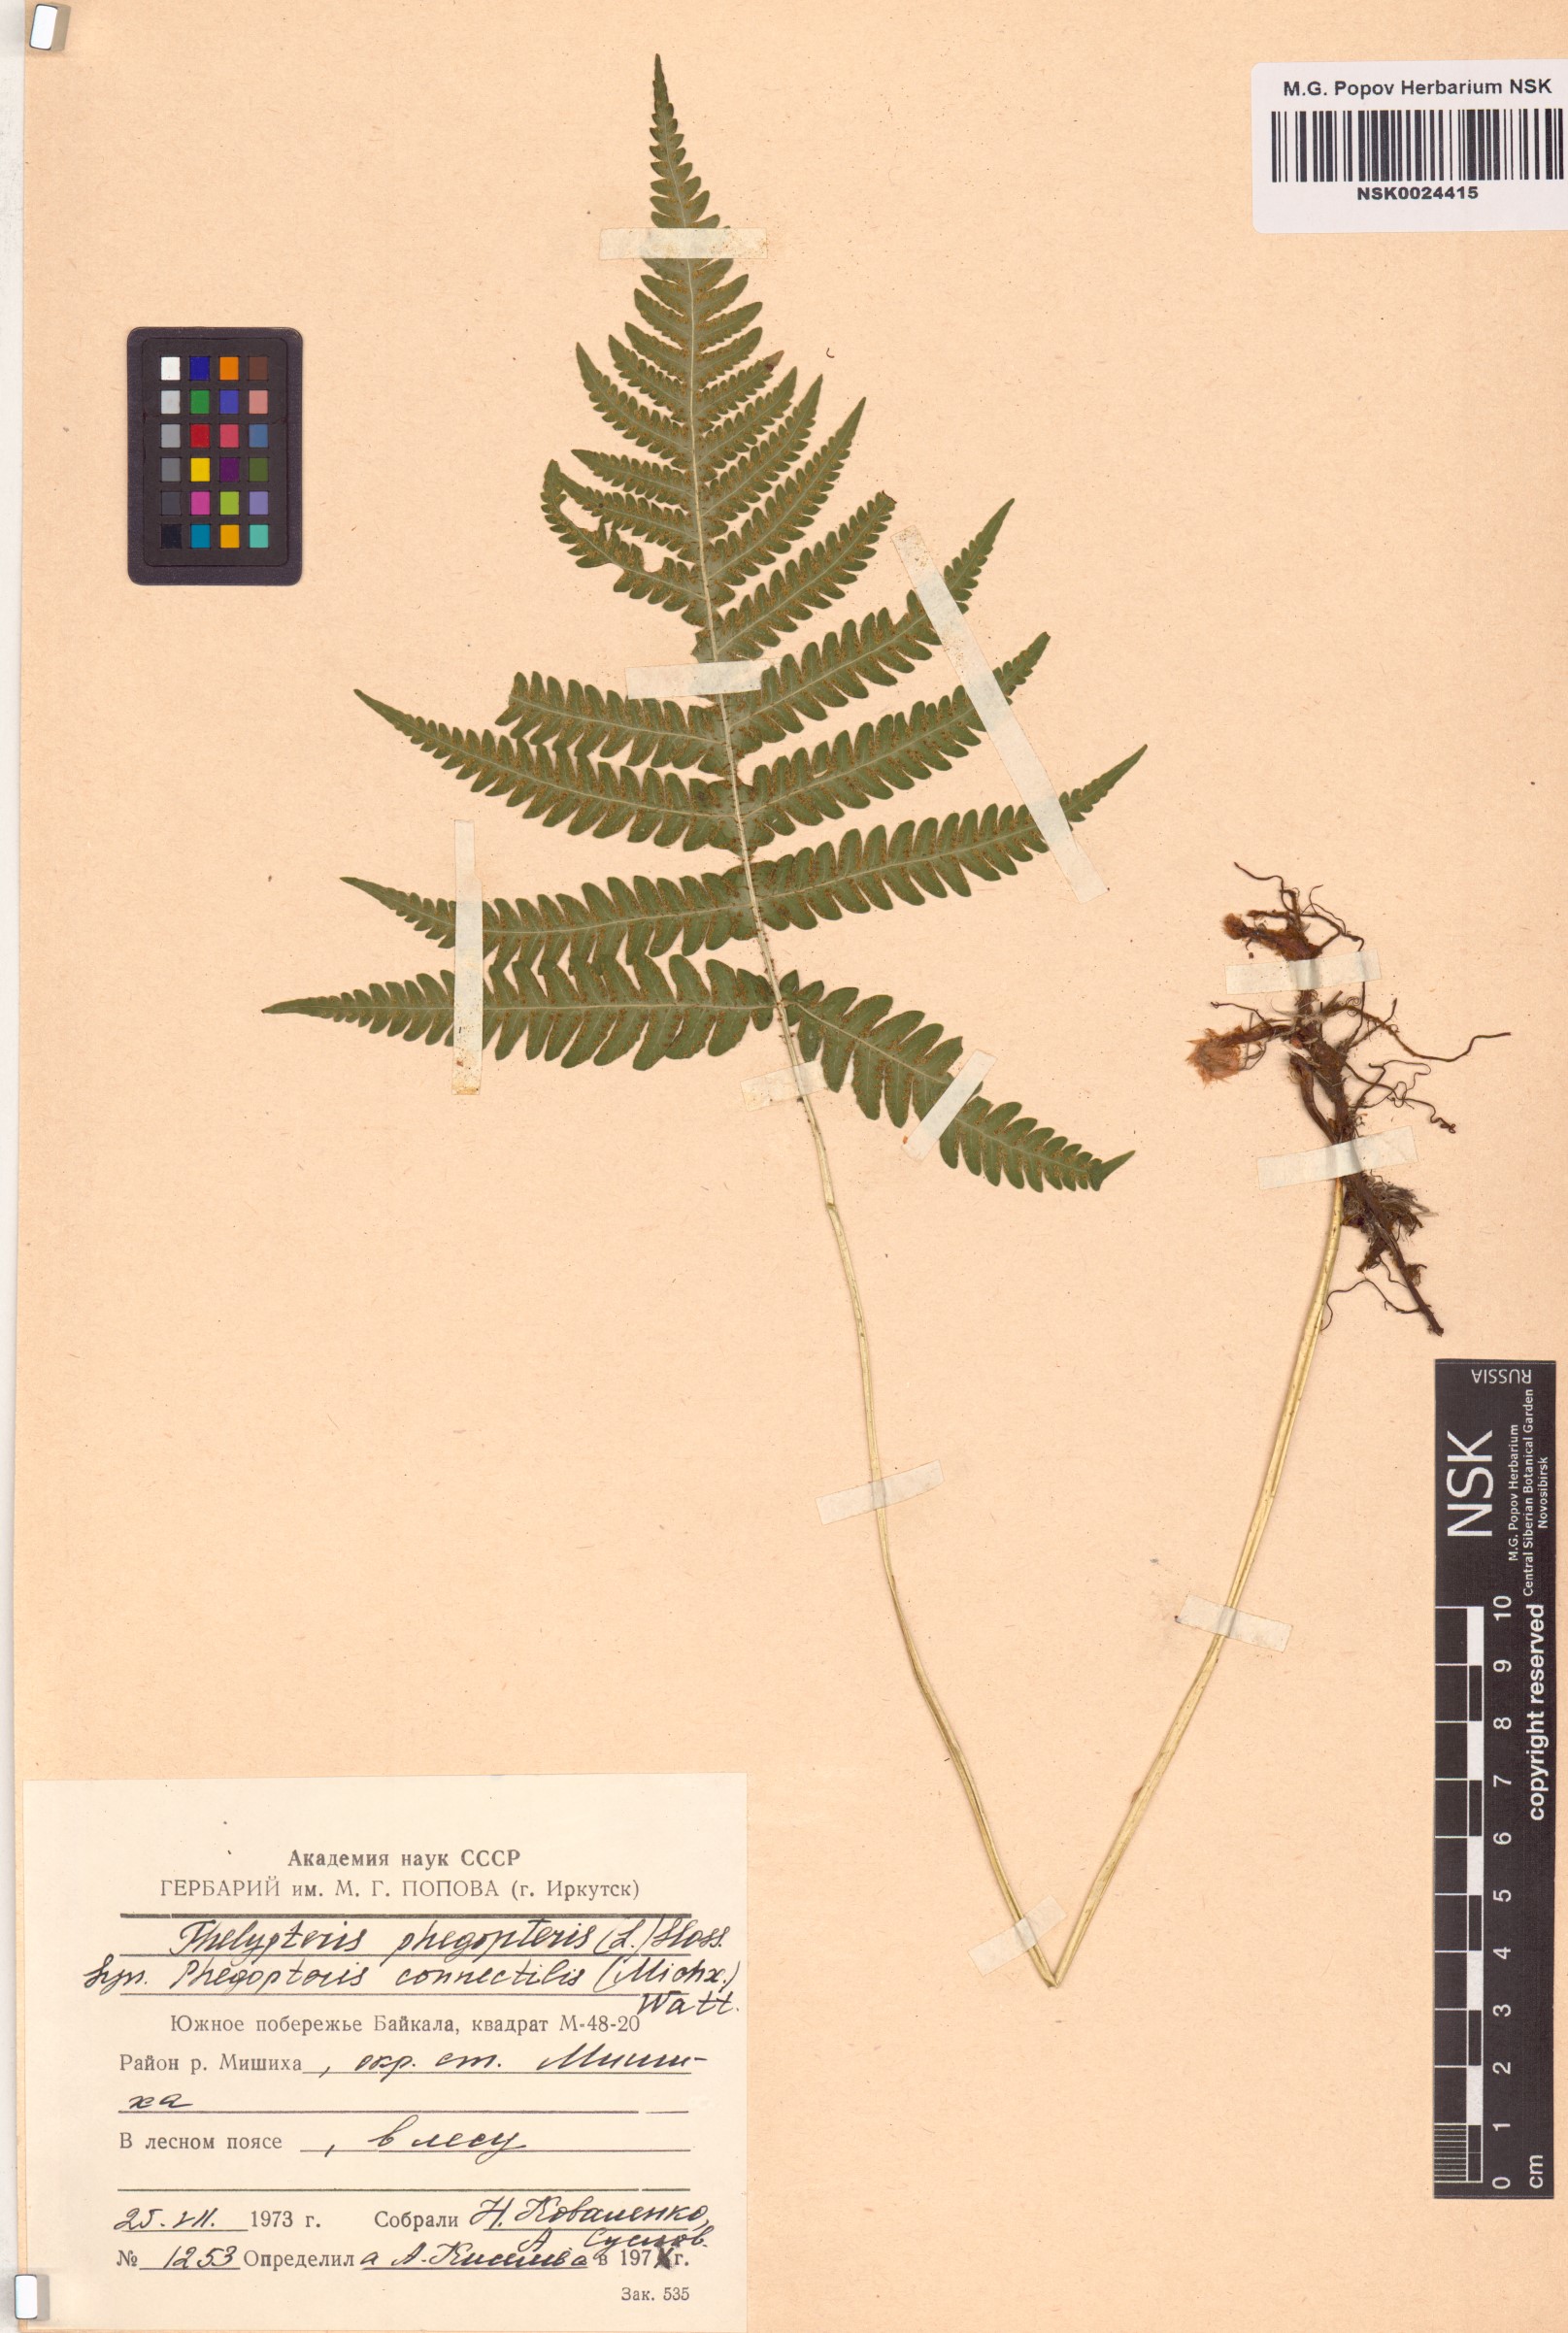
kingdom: Plantae
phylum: Tracheophyta
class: Polypodiopsida
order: Polypodiales
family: Thelypteridaceae
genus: Phegopteris
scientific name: Phegopteris connectilis
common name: Beech fern
